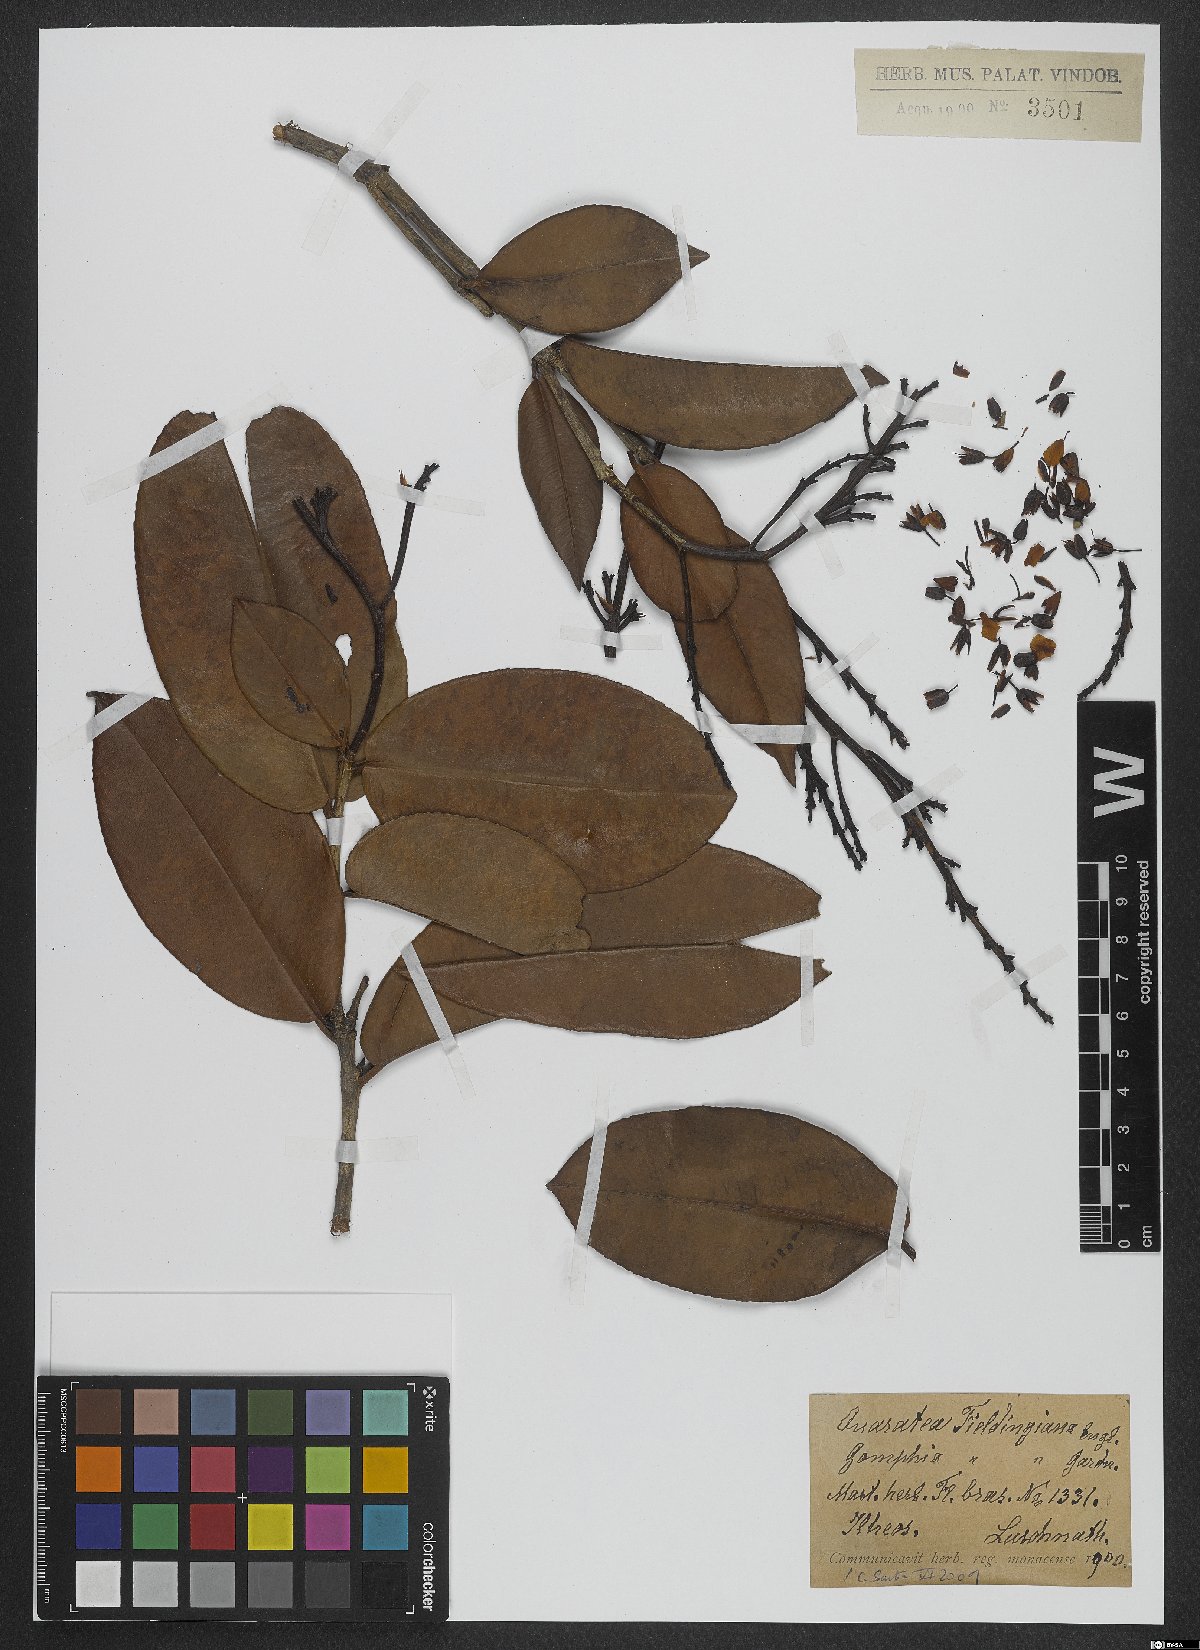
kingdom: Plantae
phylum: Tracheophyta
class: Magnoliopsida
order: Malpighiales
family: Ochnaceae
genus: Ouratea
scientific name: Ouratea fieldingiana
